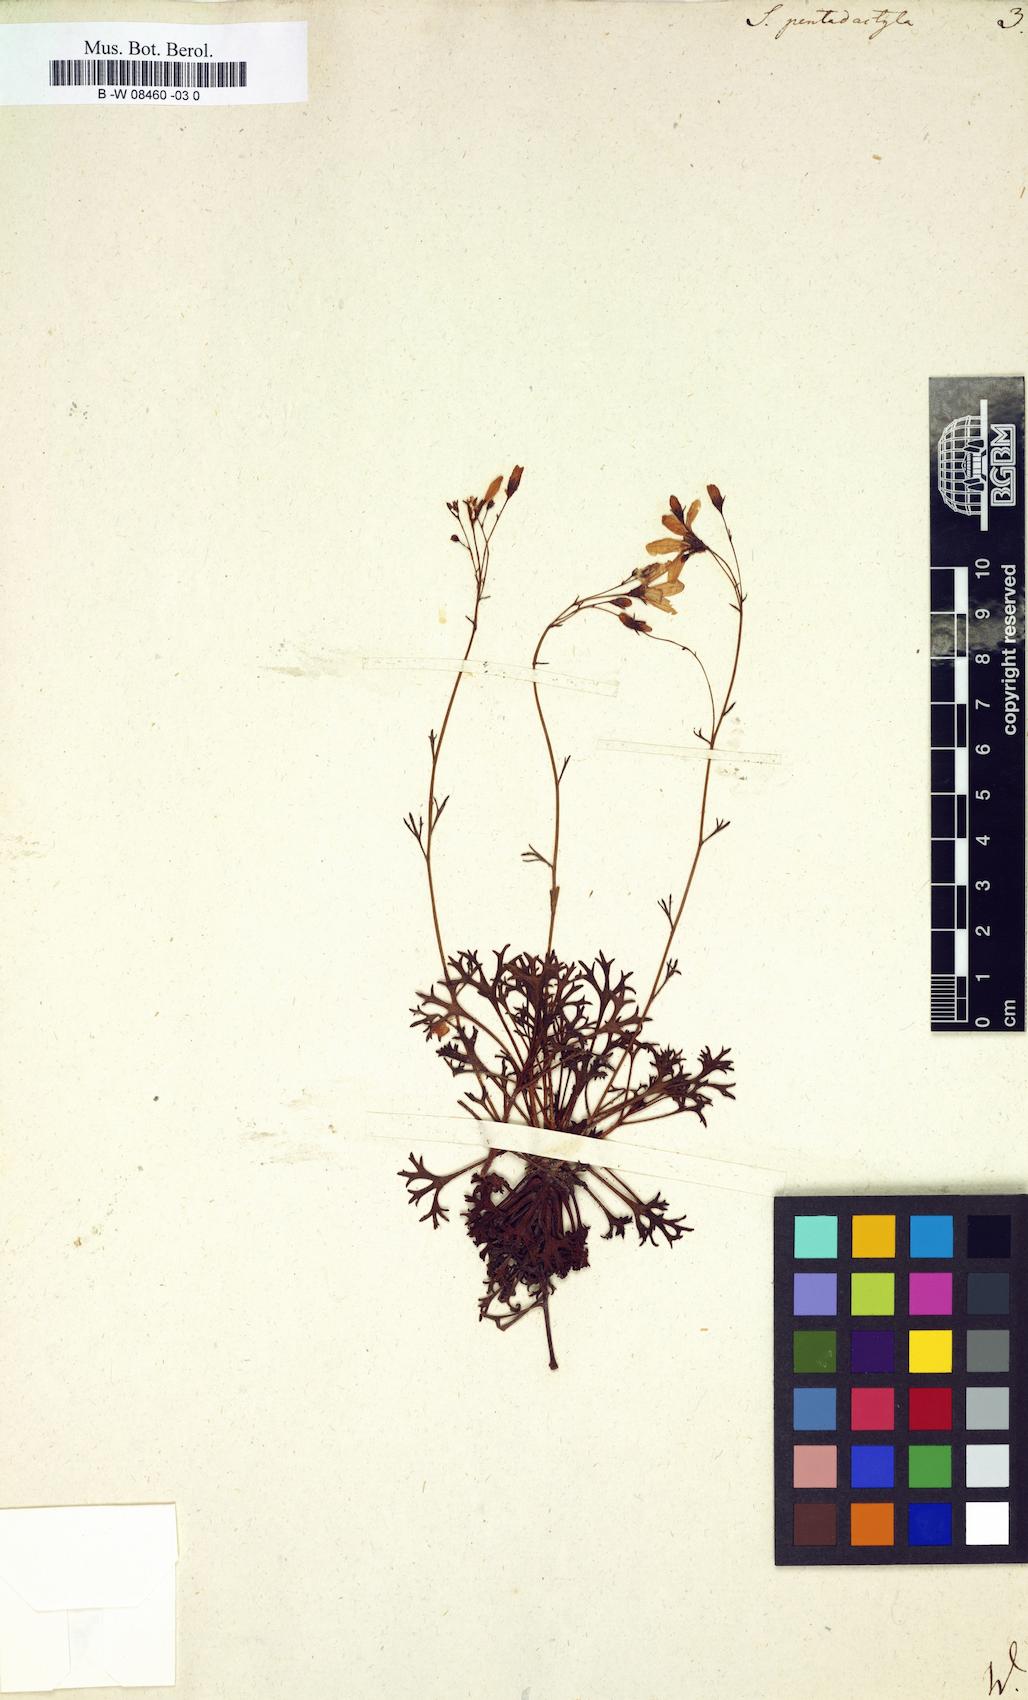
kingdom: Plantae
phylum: Tracheophyta
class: Magnoliopsida
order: Saxifragales
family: Saxifragaceae
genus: Saxifraga
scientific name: Saxifraga pentadactylis
